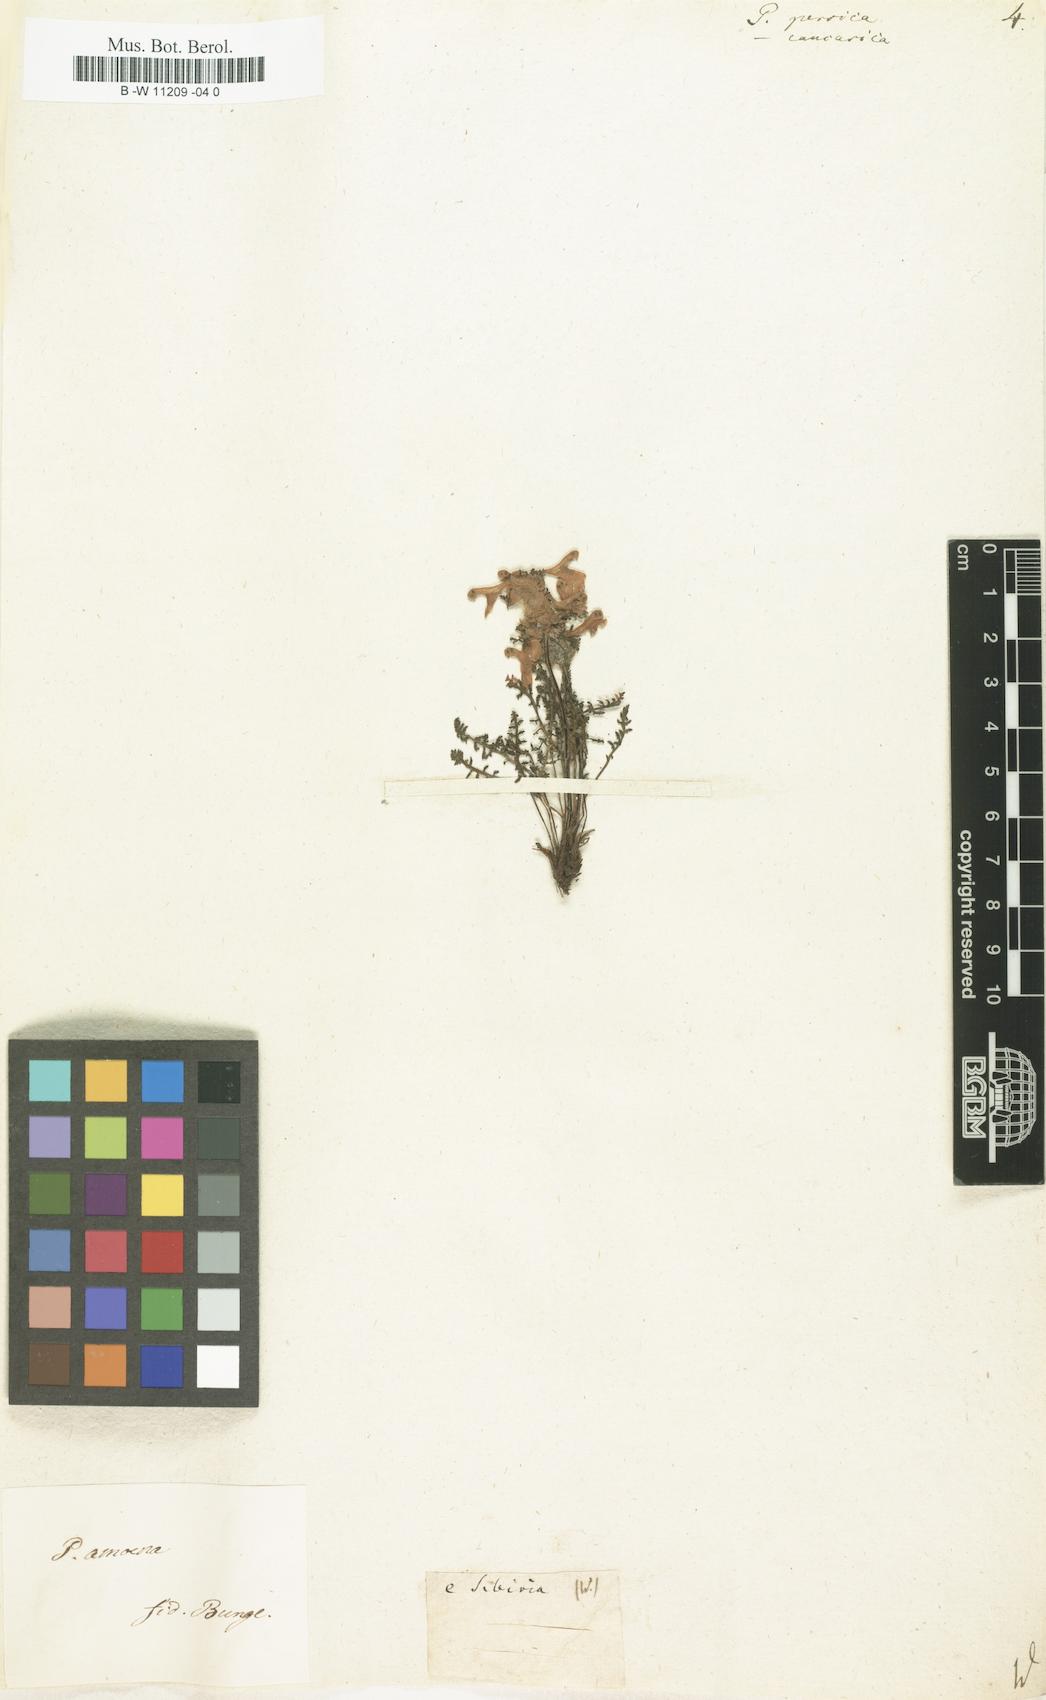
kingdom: Plantae
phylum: Tracheophyta
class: Magnoliopsida
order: Lamiales
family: Orobanchaceae
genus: Pedicularis
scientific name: Pedicularis caucasica
